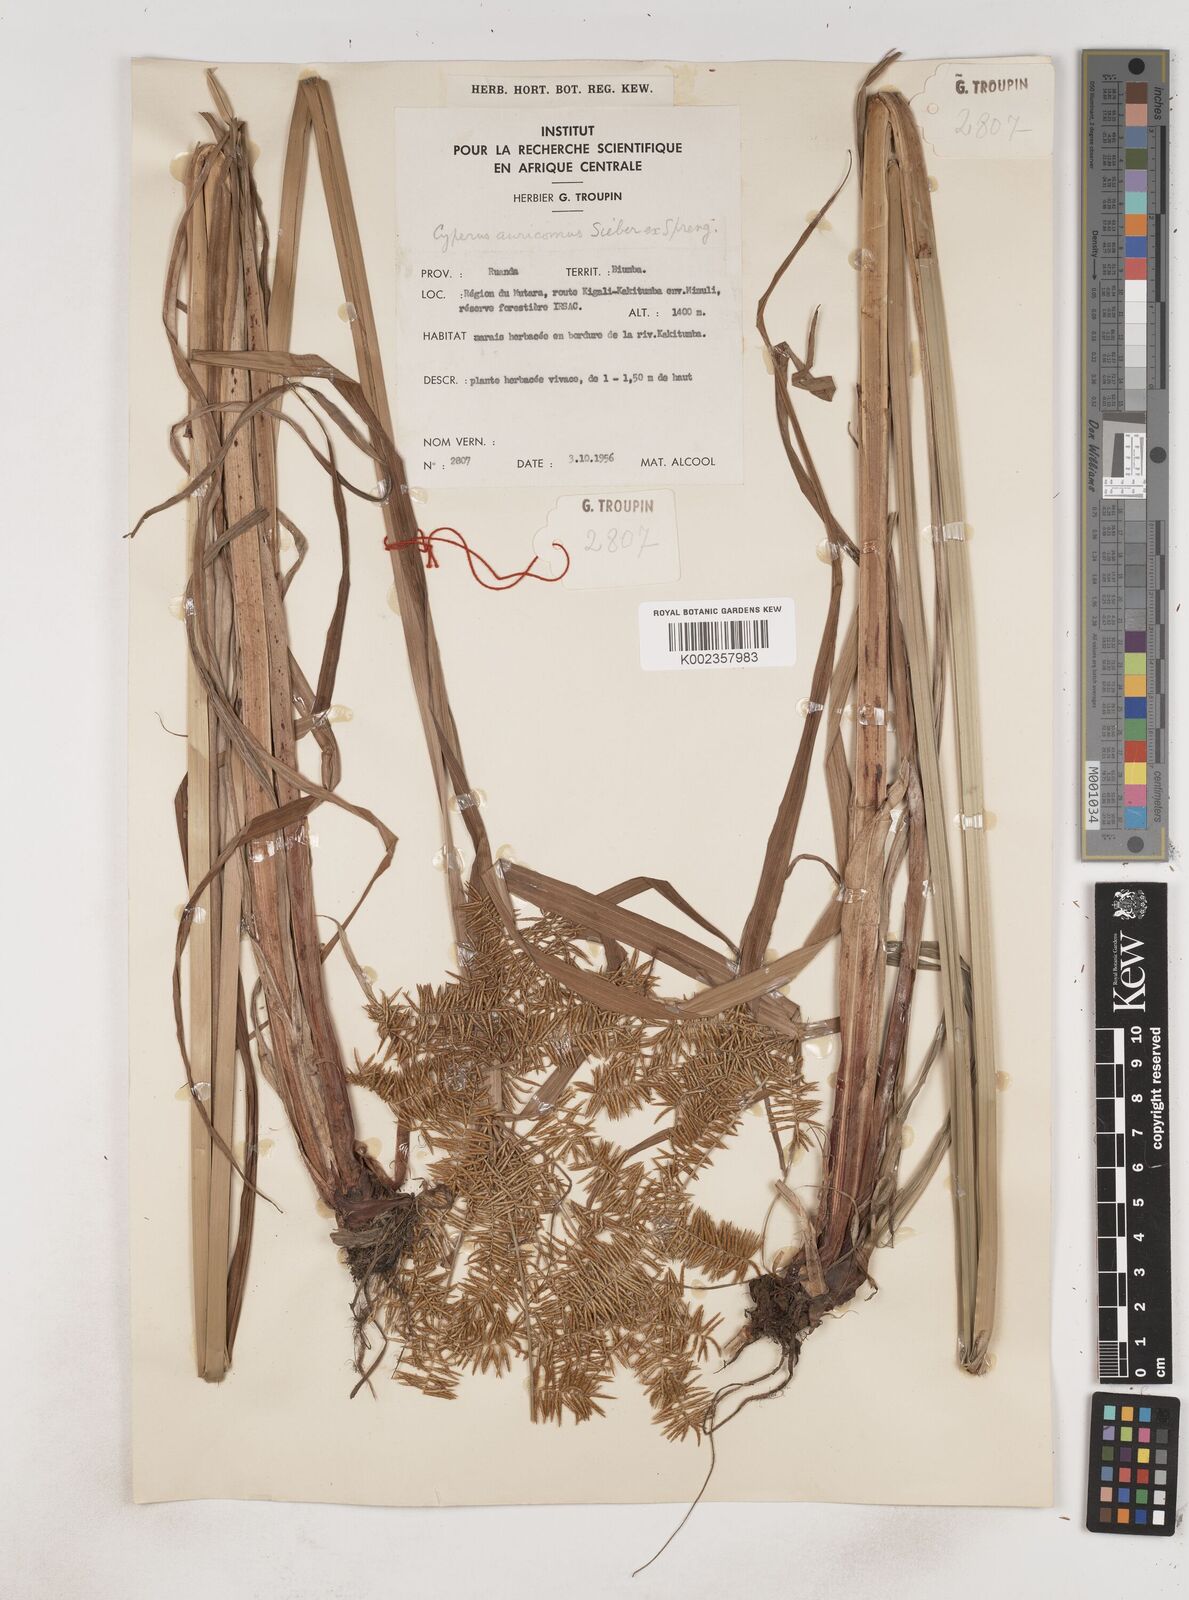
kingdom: Plantae
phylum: Tracheophyta
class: Liliopsida
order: Poales
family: Cyperaceae
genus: Cyperus
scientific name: Cyperus digitatus
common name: Finger flatsedge
